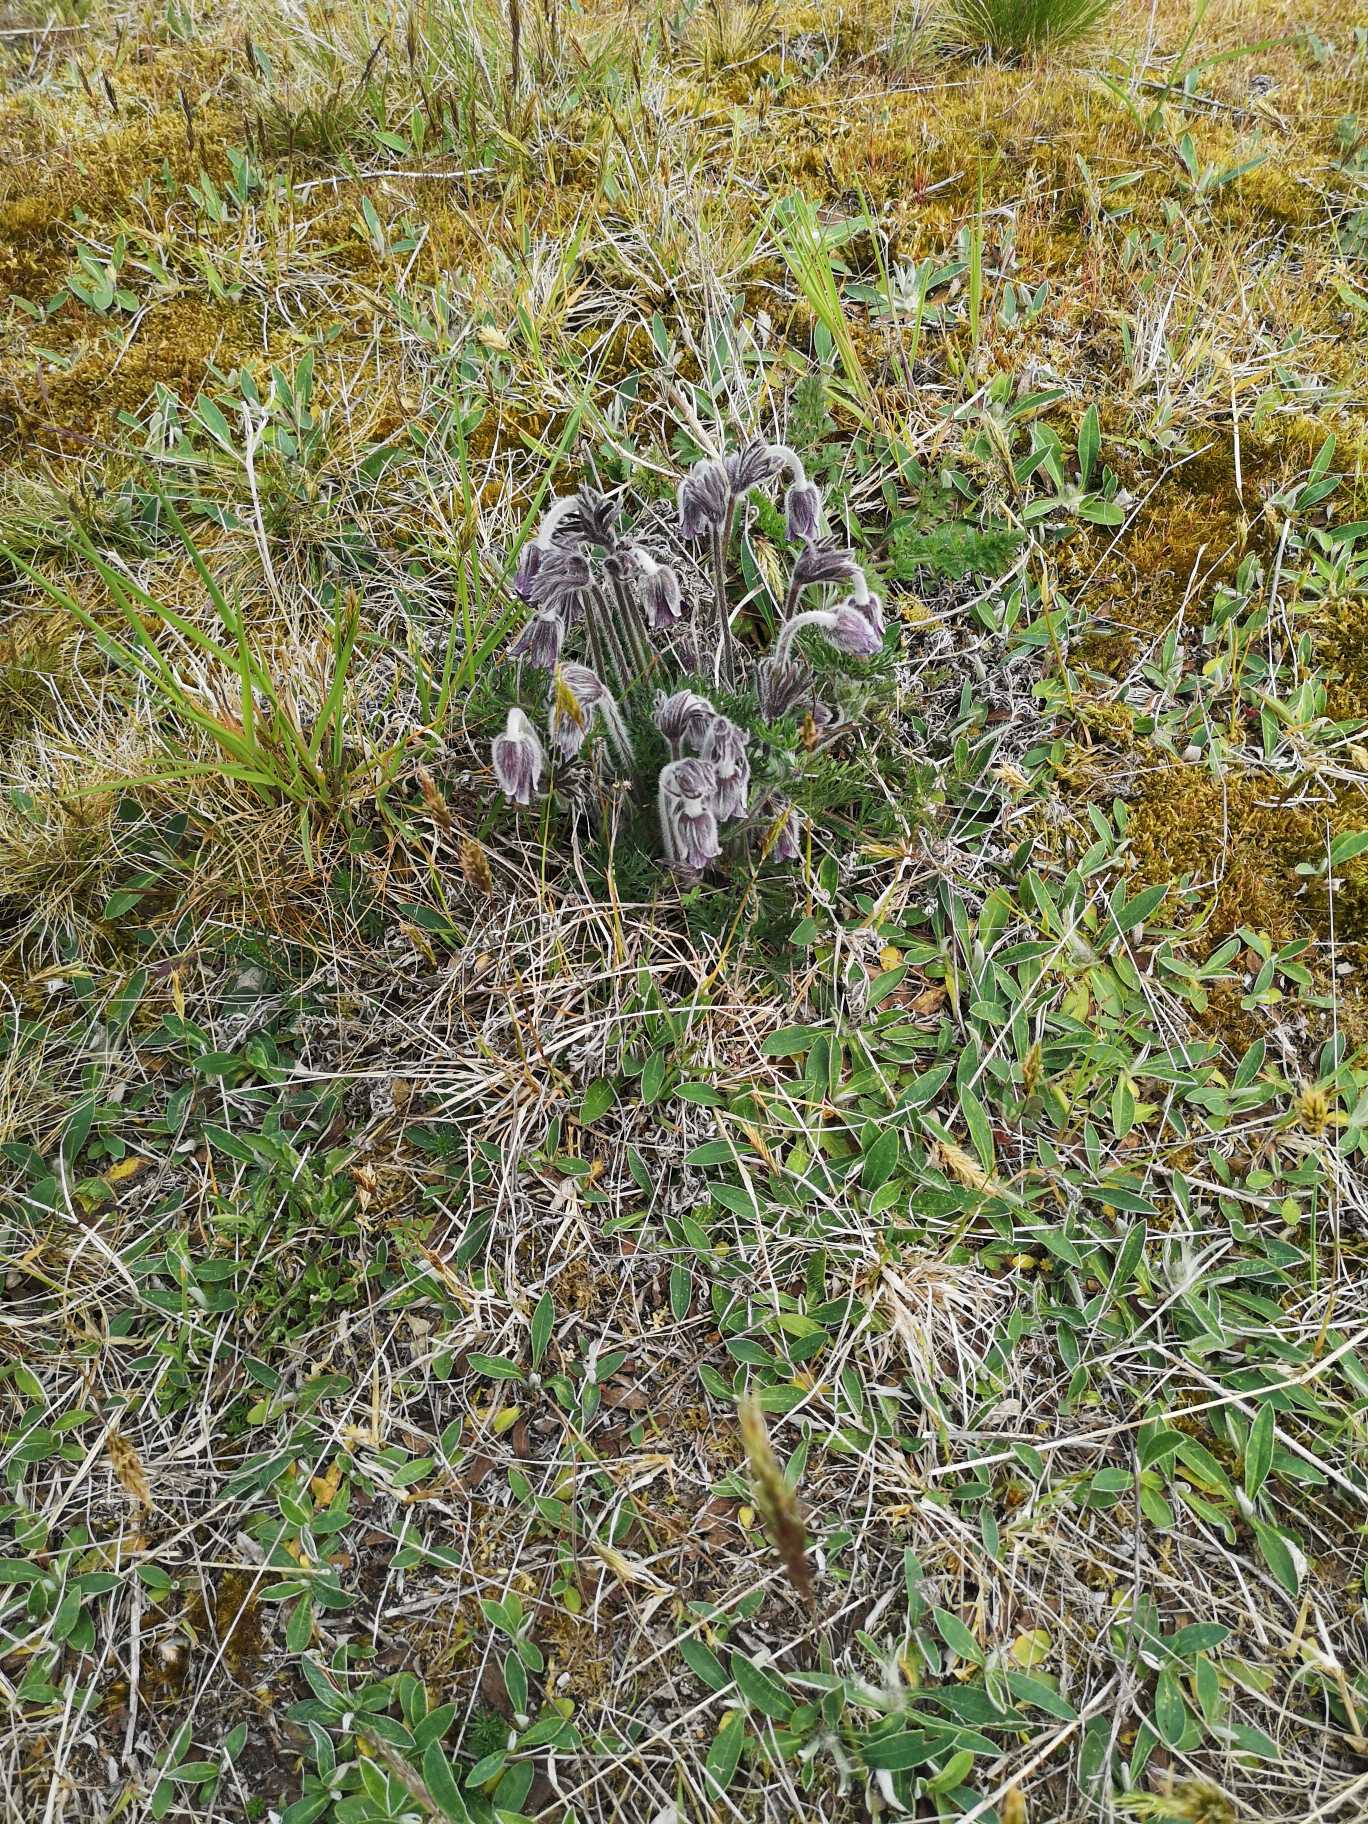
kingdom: Plantae
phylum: Tracheophyta
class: Magnoliopsida
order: Ranunculales
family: Ranunculaceae
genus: Pulsatilla
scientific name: Pulsatilla pratensis
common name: Nikkende kobjælde
